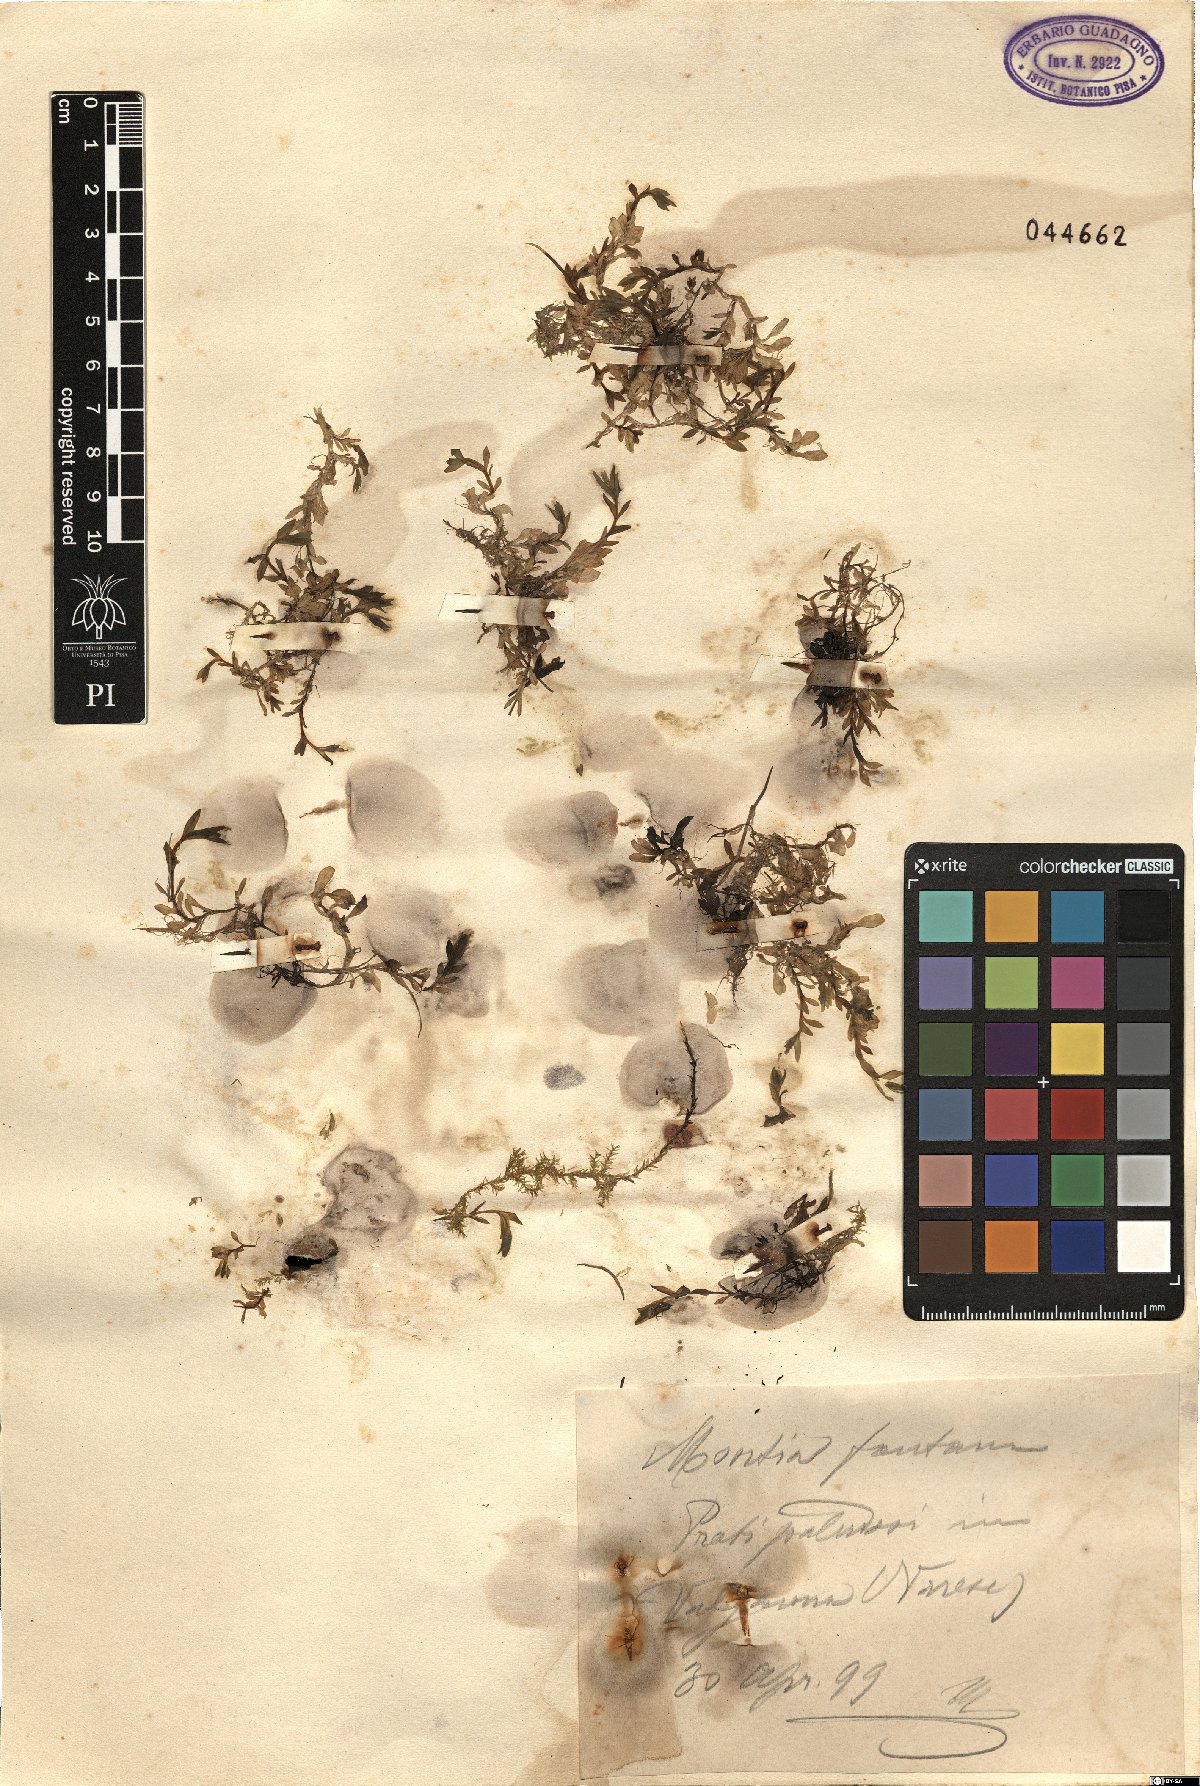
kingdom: Plantae
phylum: Tracheophyta
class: Magnoliopsida
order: Caryophyllales
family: Montiaceae
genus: Montia
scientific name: Montia fontana
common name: Blinks
